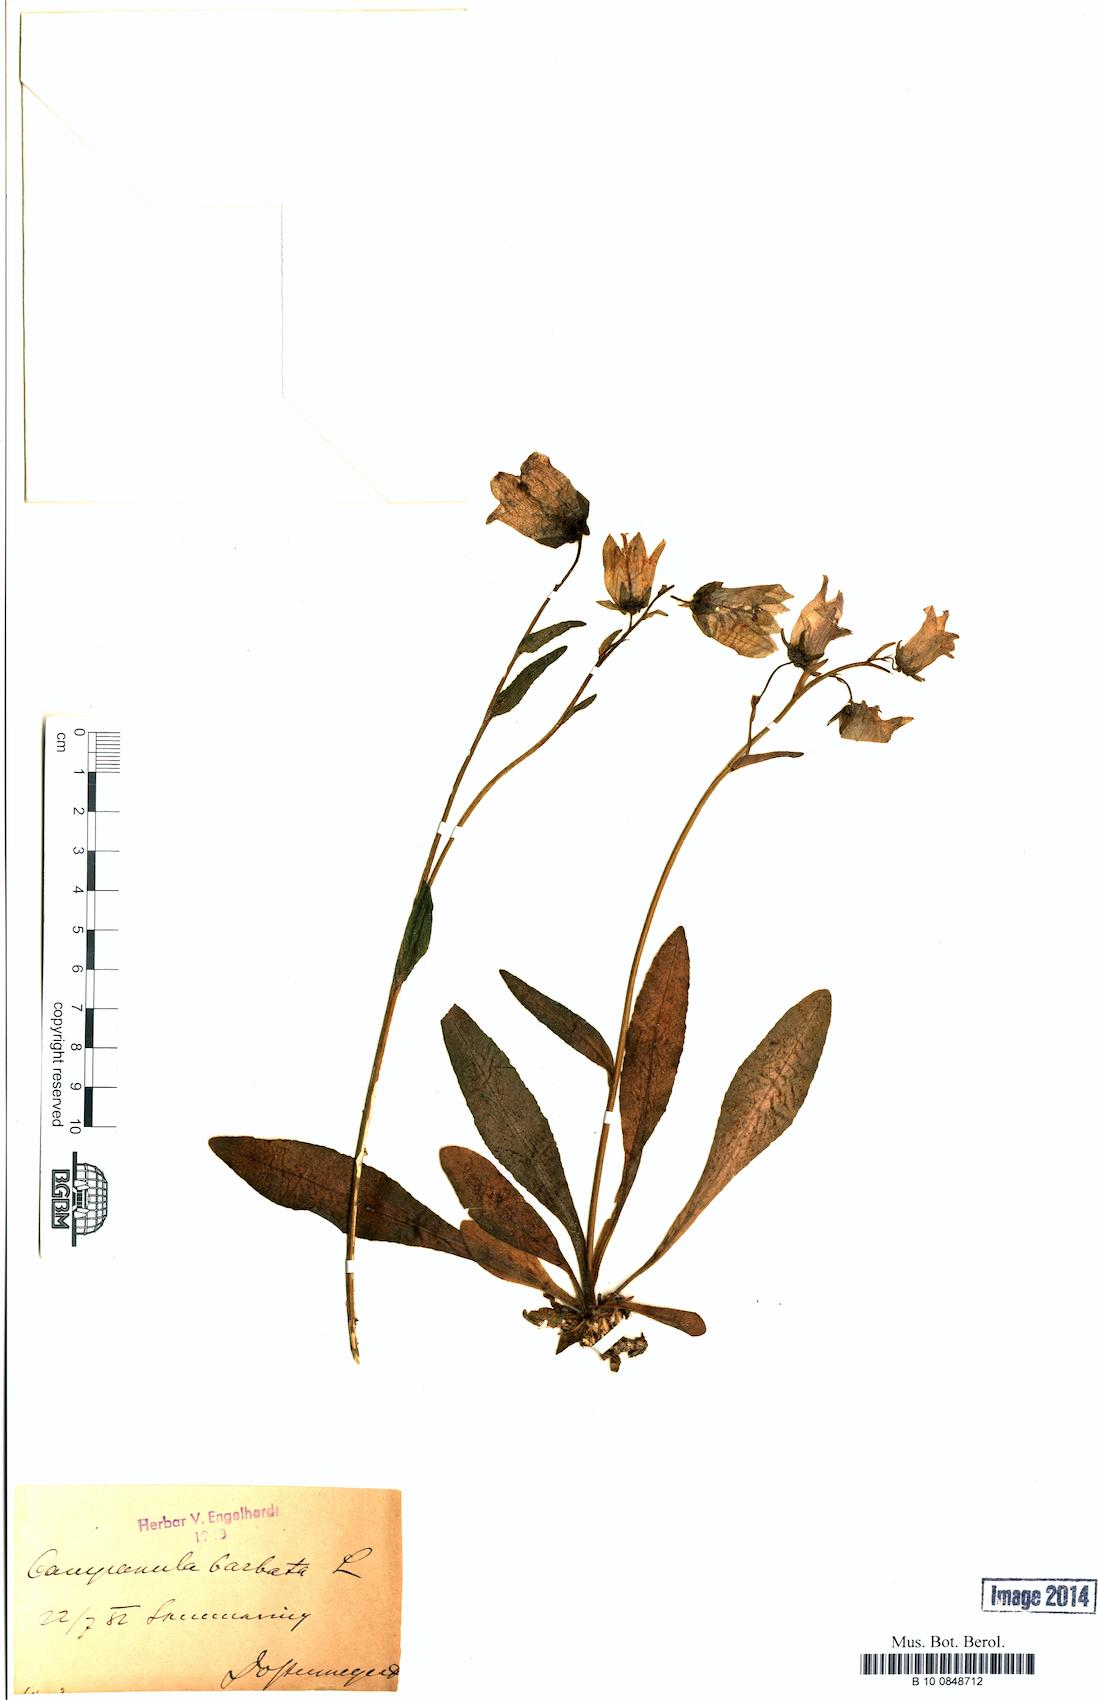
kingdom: Plantae
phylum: Tracheophyta
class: Magnoliopsida
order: Asterales
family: Campanulaceae
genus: Campanula
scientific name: Campanula barbata
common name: Bearded bellflower
